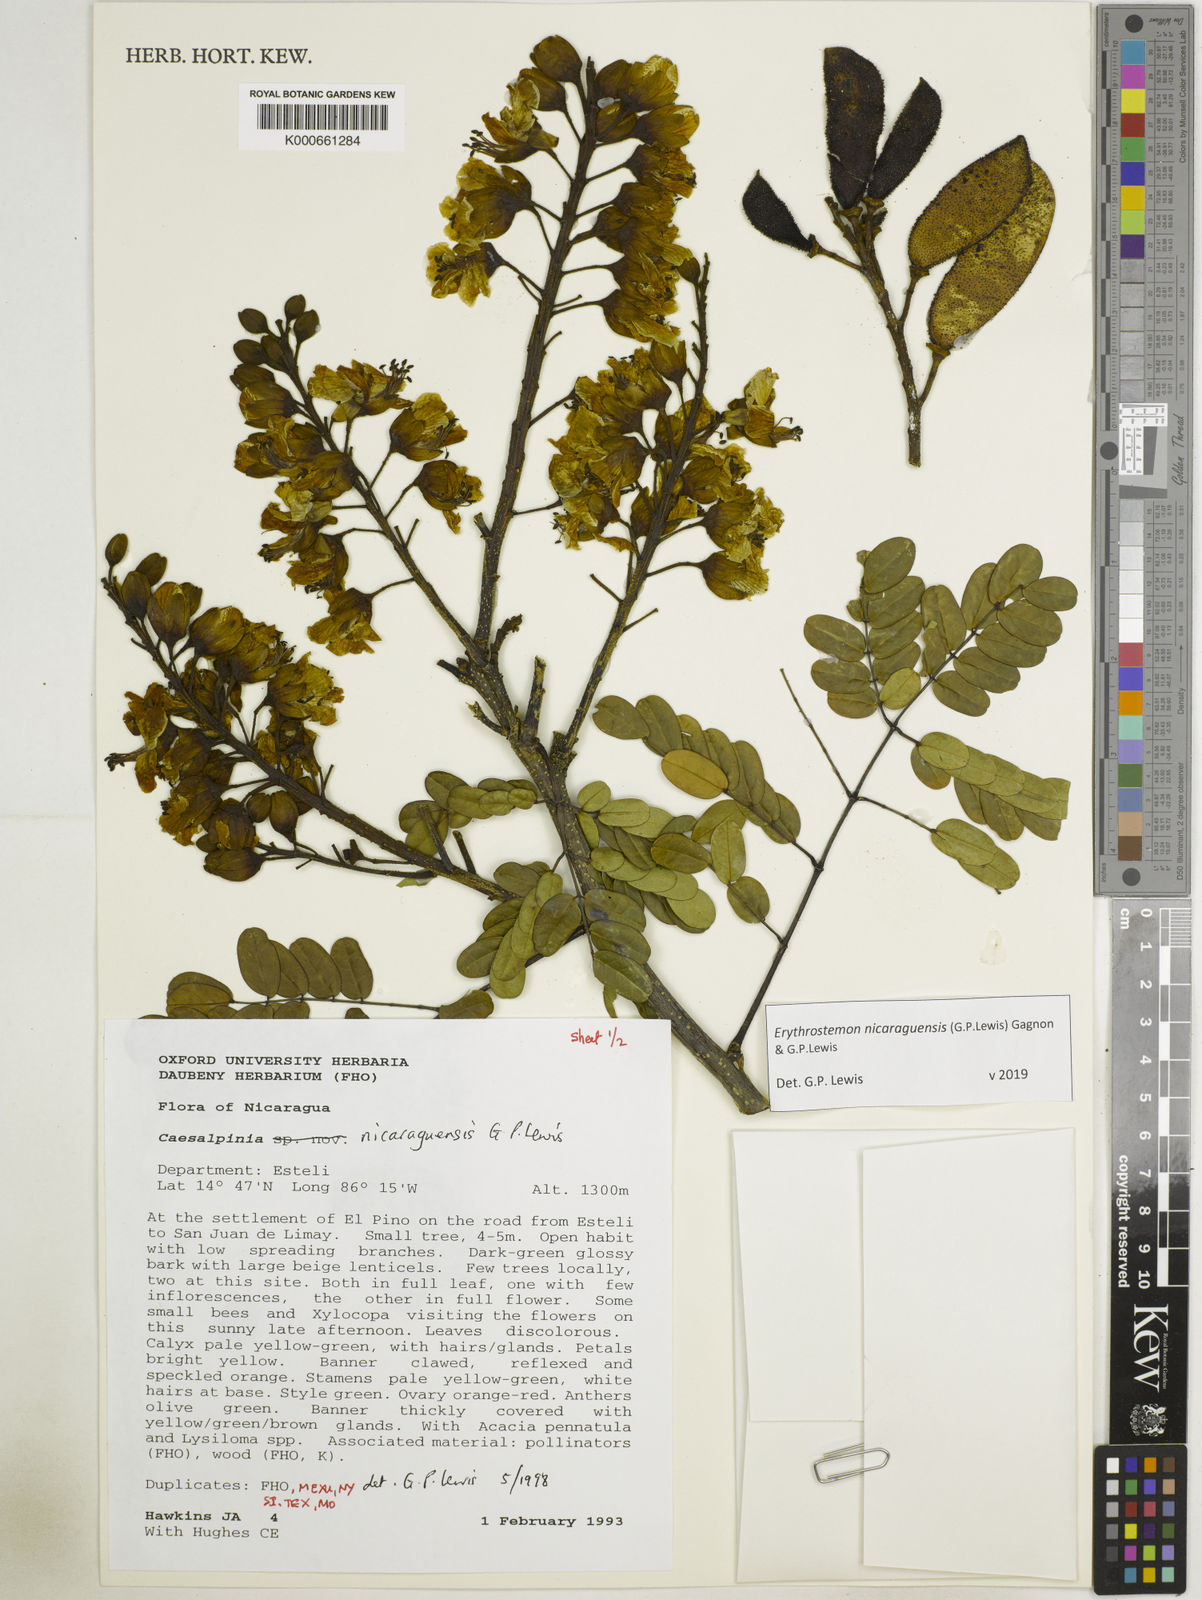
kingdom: Plantae
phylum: Tracheophyta
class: Magnoliopsida
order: Fabales
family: Fabaceae
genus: Erythrostemon
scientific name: Erythrostemon nicaraguensis
